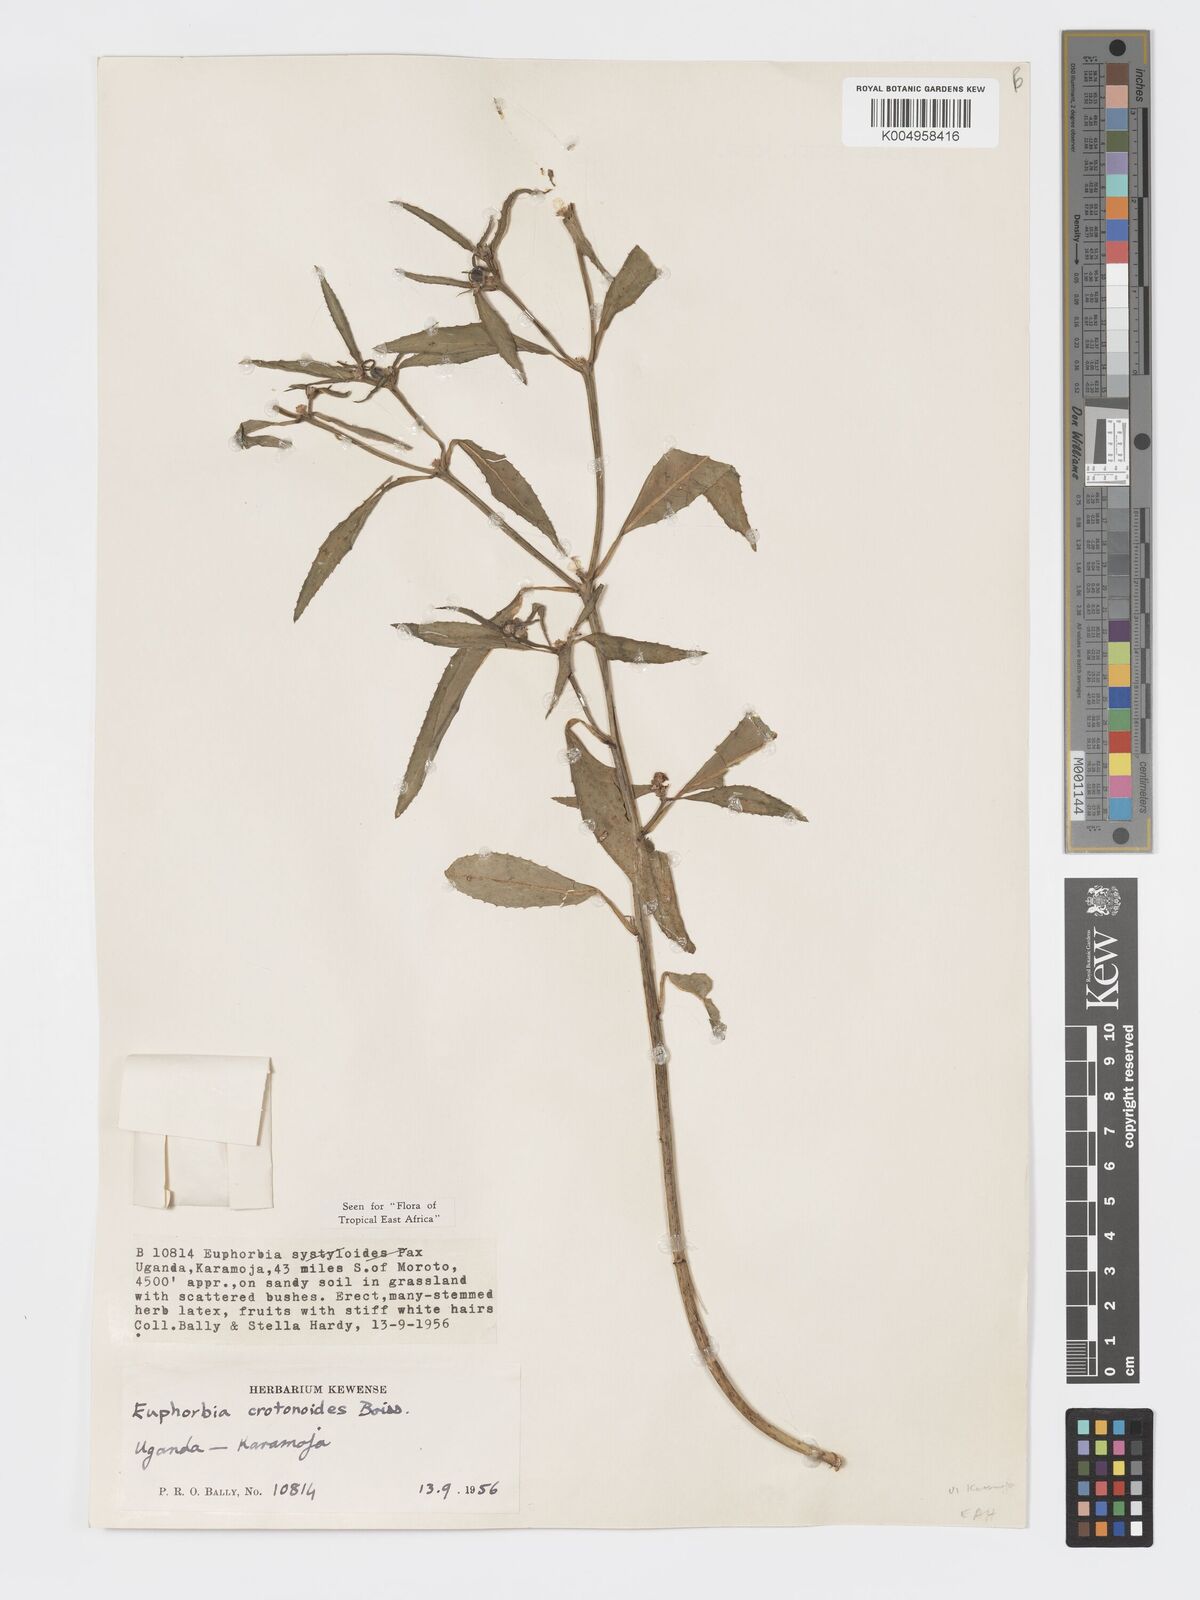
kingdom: Plantae
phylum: Tracheophyta
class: Magnoliopsida
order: Malpighiales
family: Euphorbiaceae
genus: Euphorbia
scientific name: Euphorbia crotonoides
